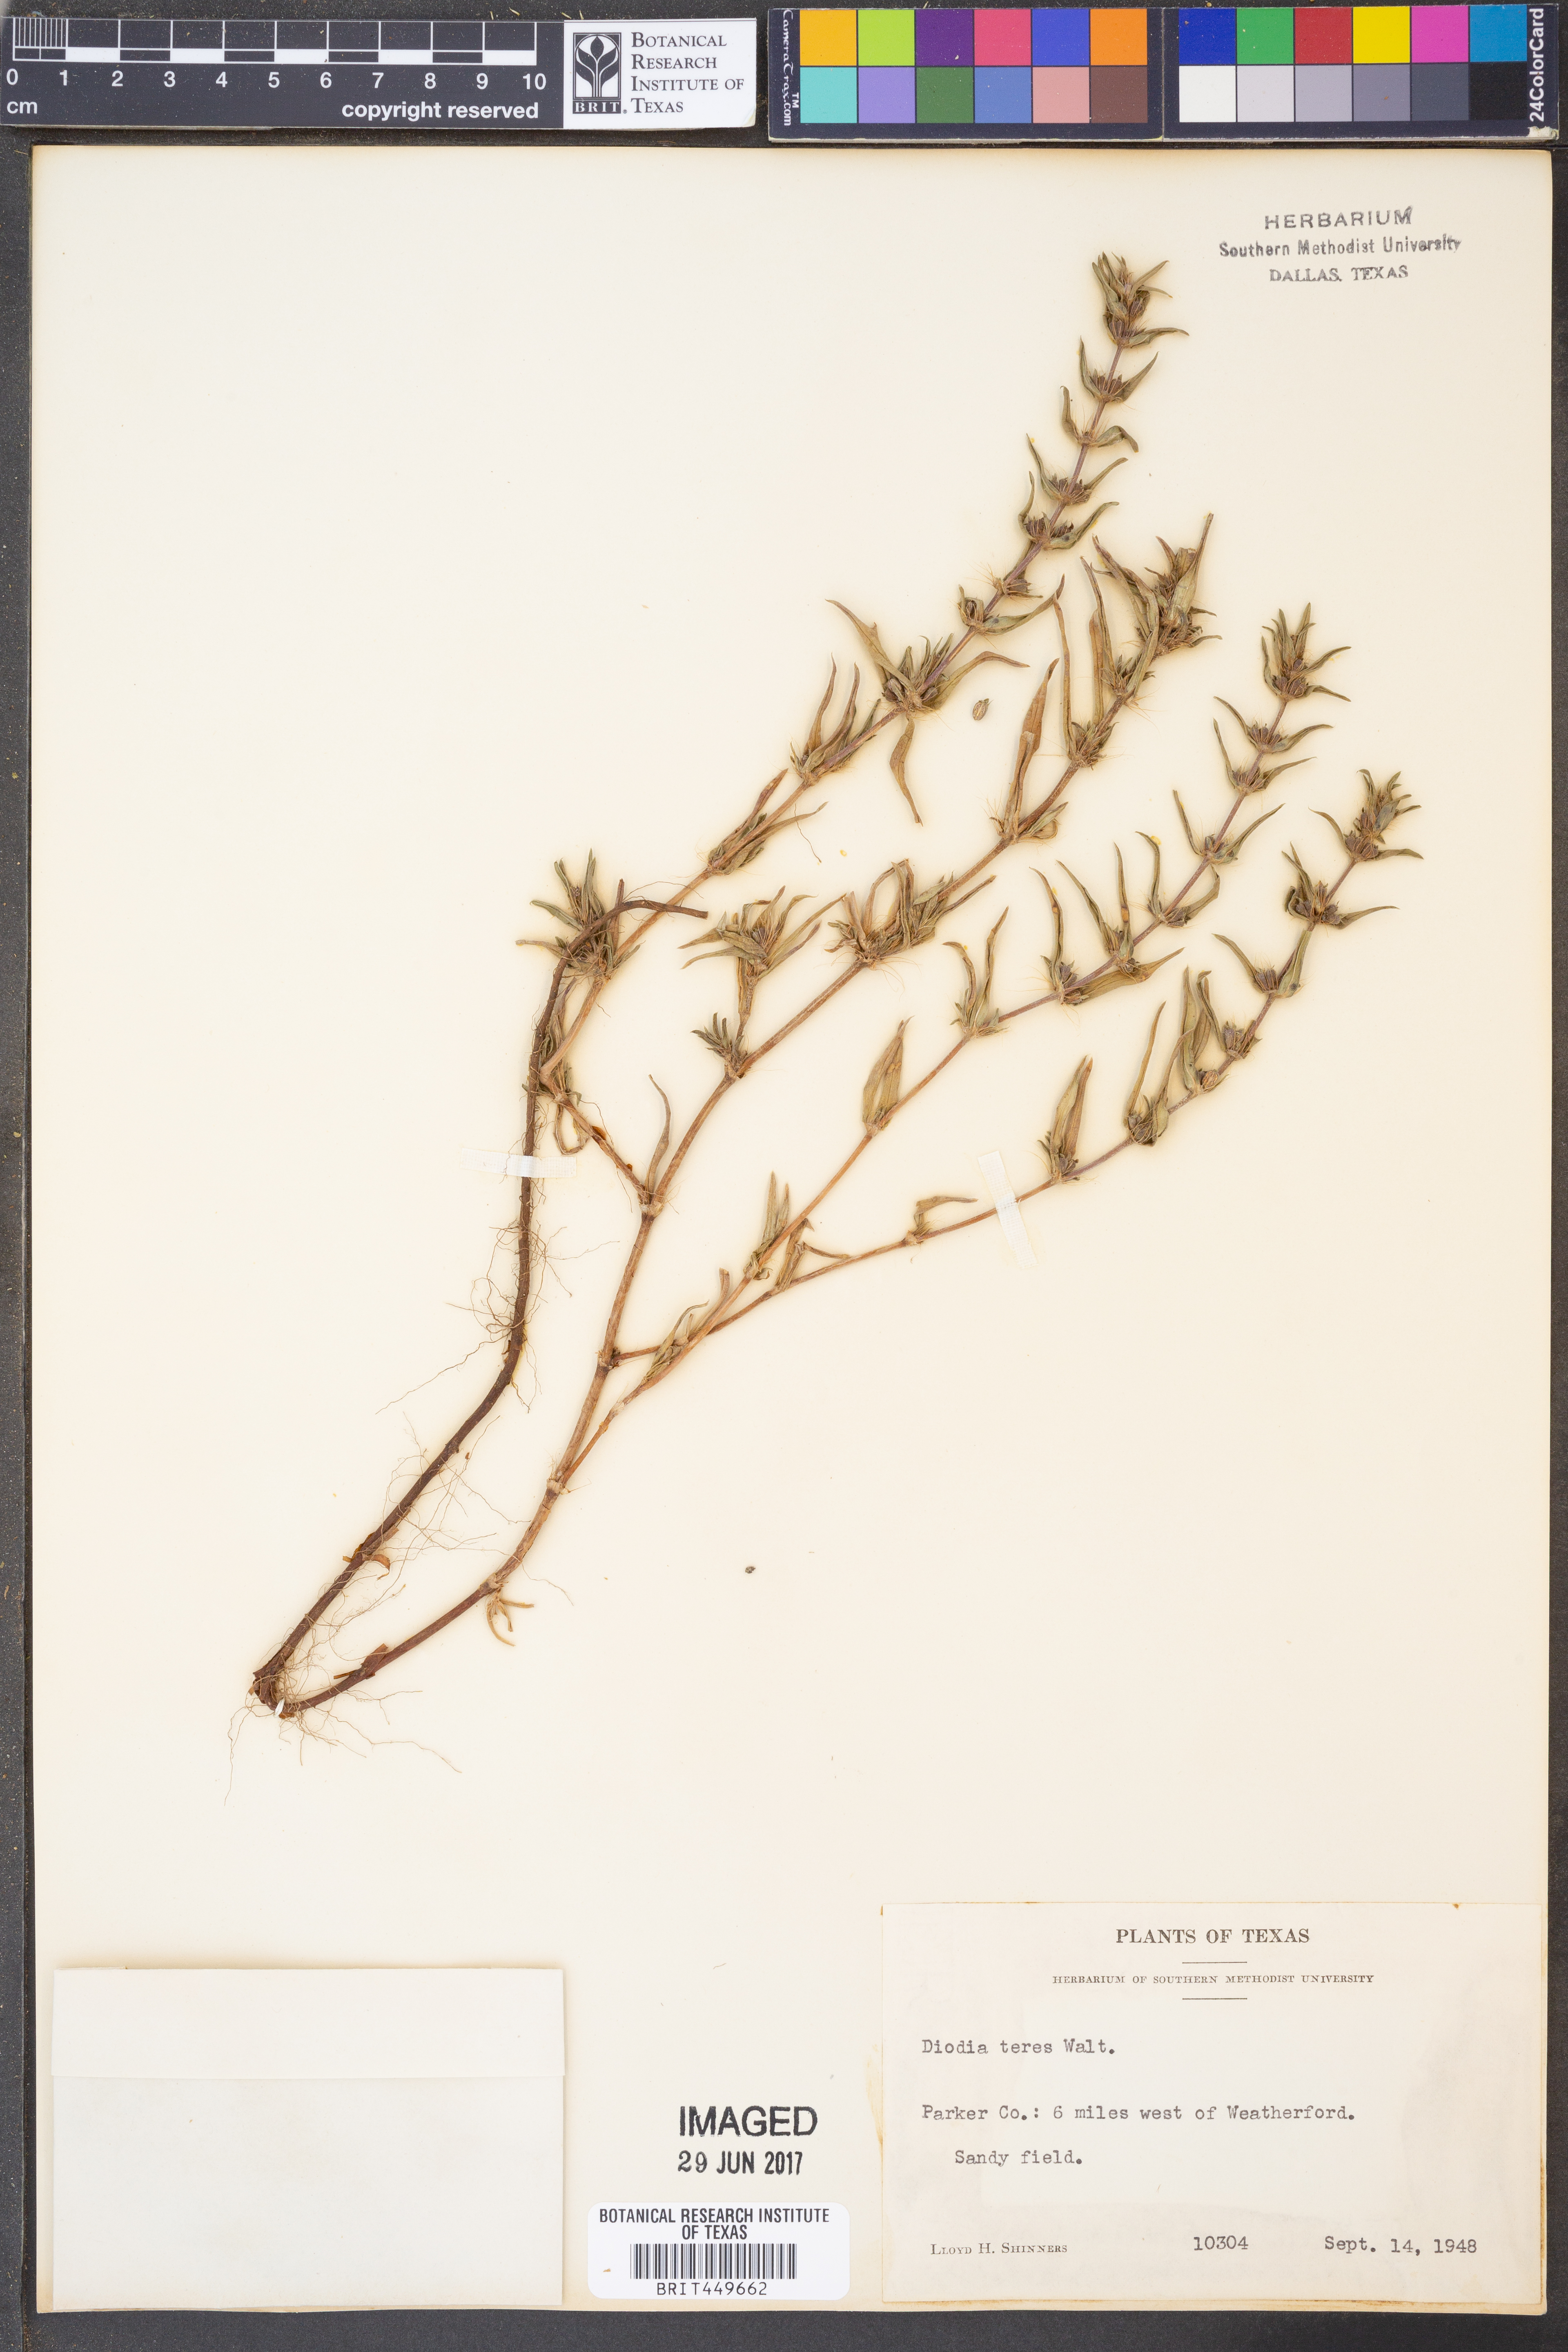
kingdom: Plantae
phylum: Tracheophyta
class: Magnoliopsida
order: Gentianales
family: Rubiaceae
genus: Hexasepalum
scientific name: Hexasepalum teres
